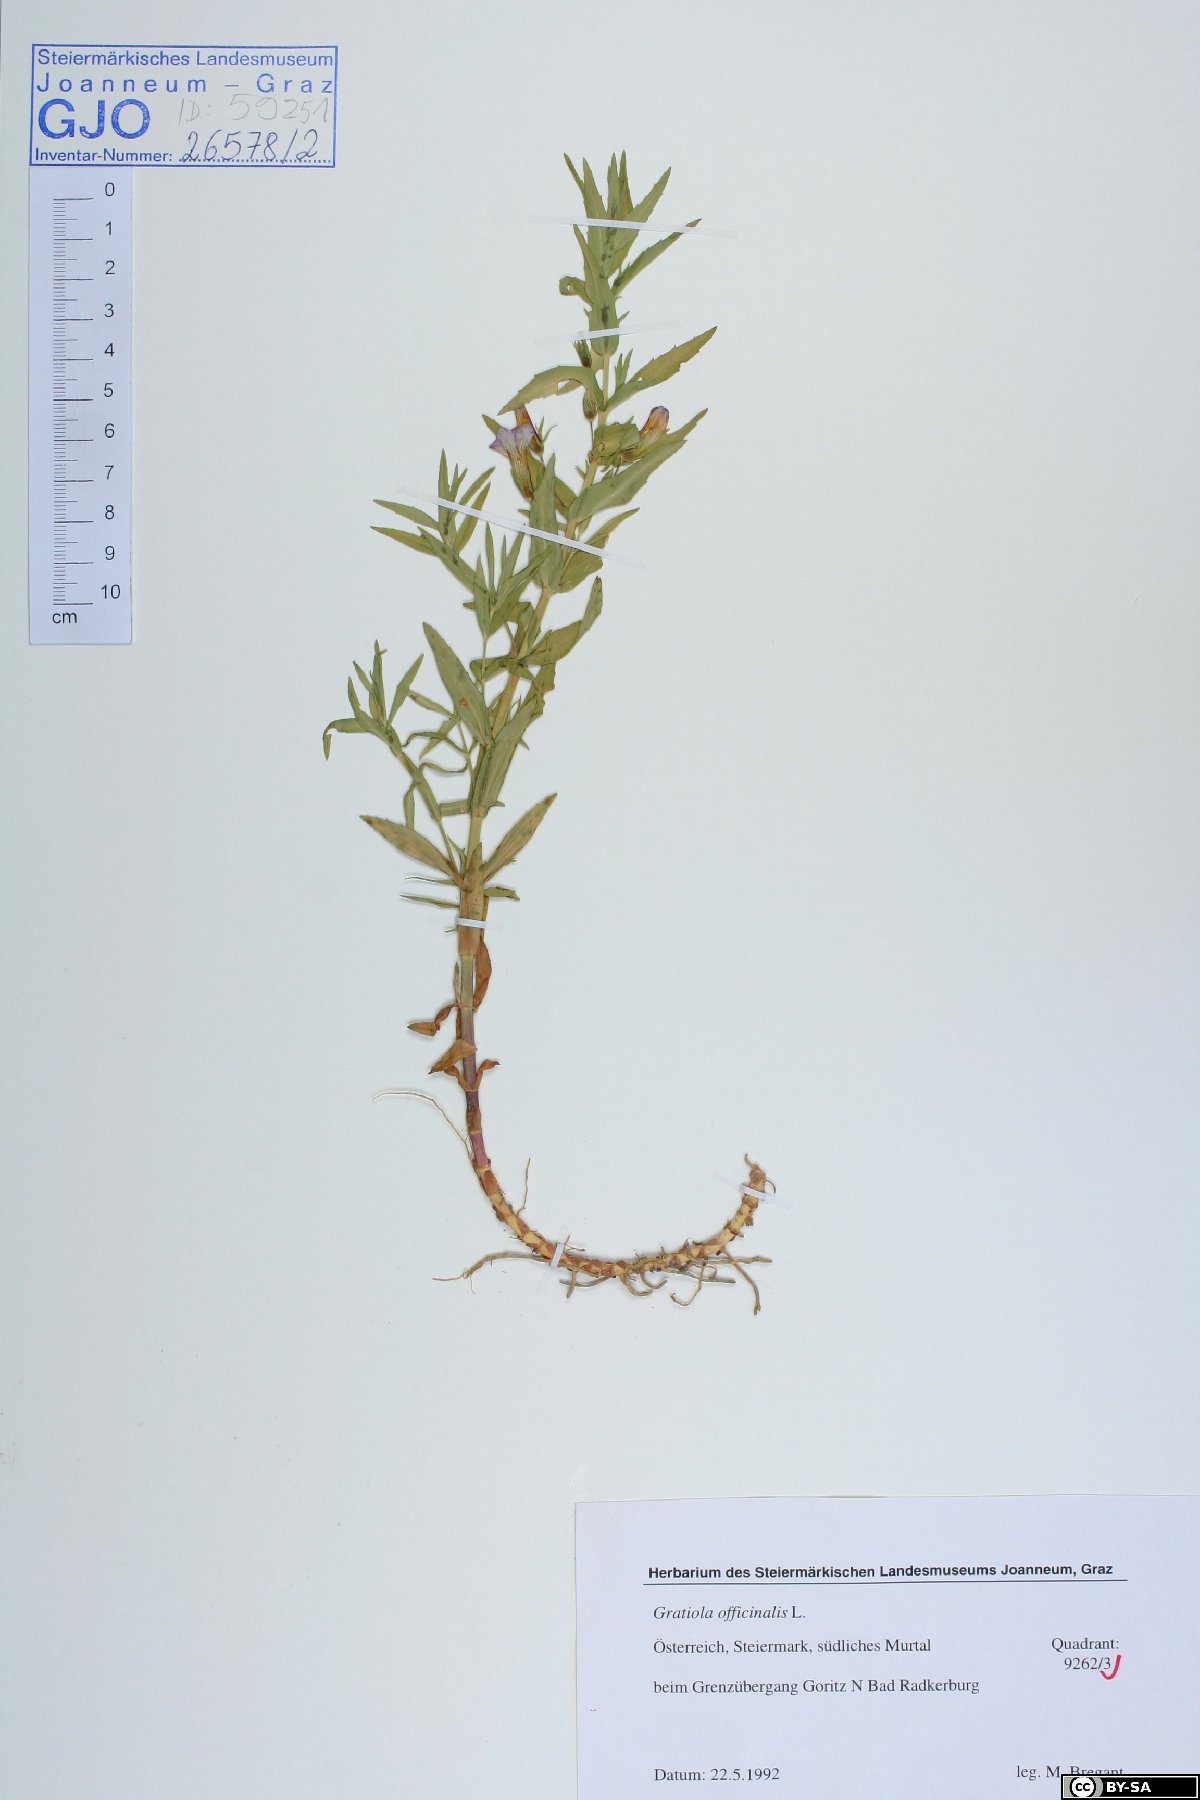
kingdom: Plantae
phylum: Tracheophyta
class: Magnoliopsida
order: Lamiales
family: Plantaginaceae
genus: Gratiola
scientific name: Gratiola officinalis
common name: Gratiola
